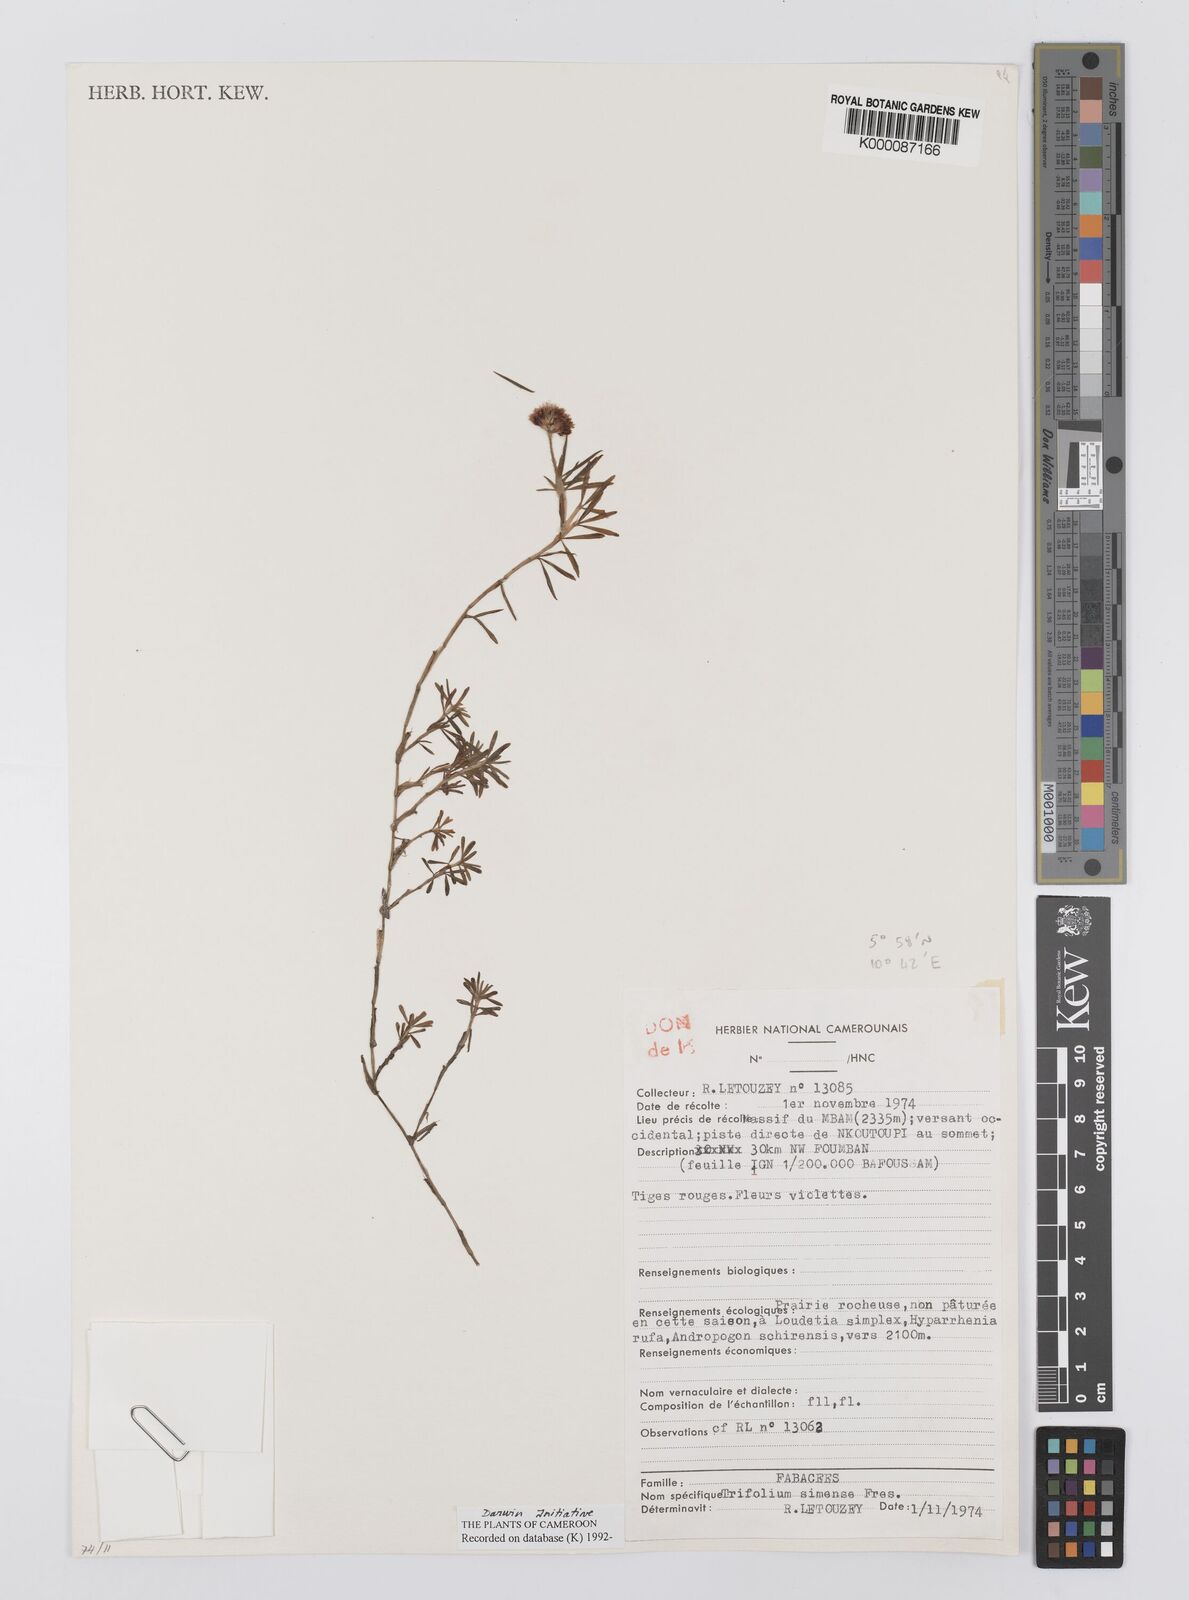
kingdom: Plantae
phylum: Tracheophyta
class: Magnoliopsida
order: Fabales
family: Fabaceae
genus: Trifolium
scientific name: Trifolium simense
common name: Simen clover
